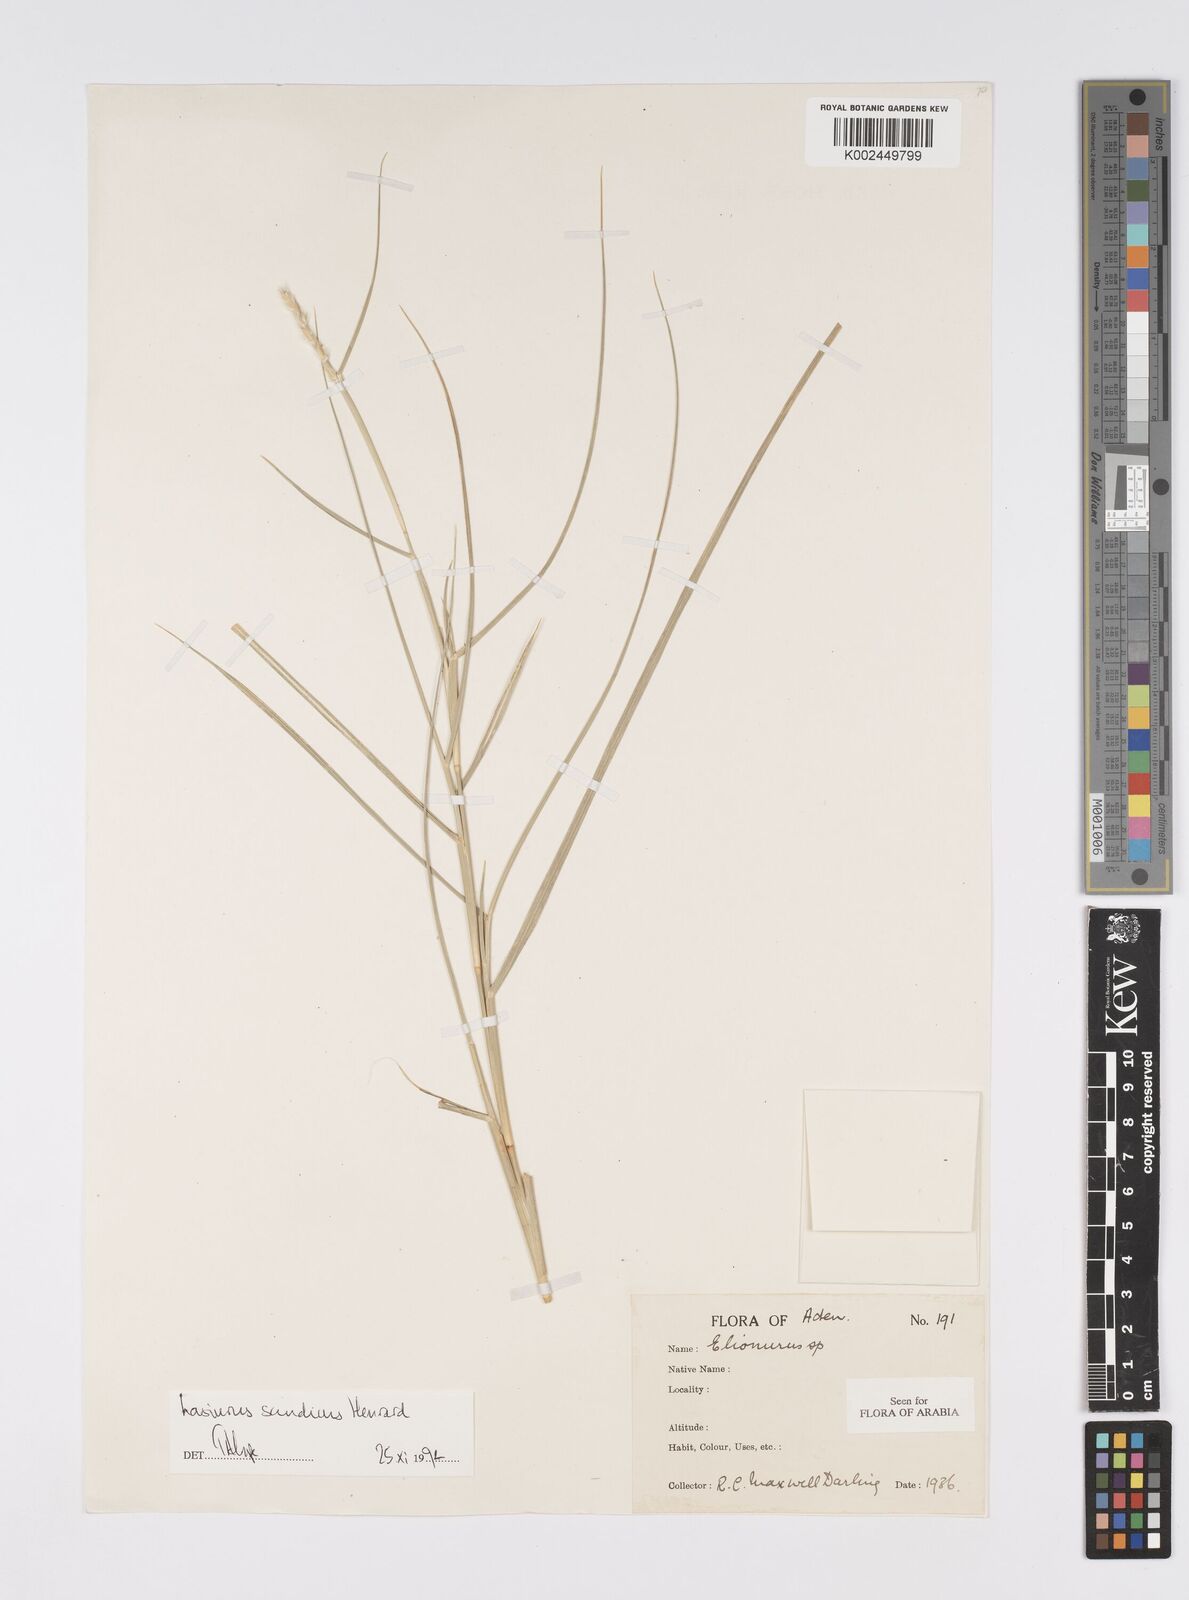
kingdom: Plantae
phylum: Tracheophyta
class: Liliopsida
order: Poales
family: Poaceae
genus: Lasiurus
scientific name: Lasiurus scindicus
